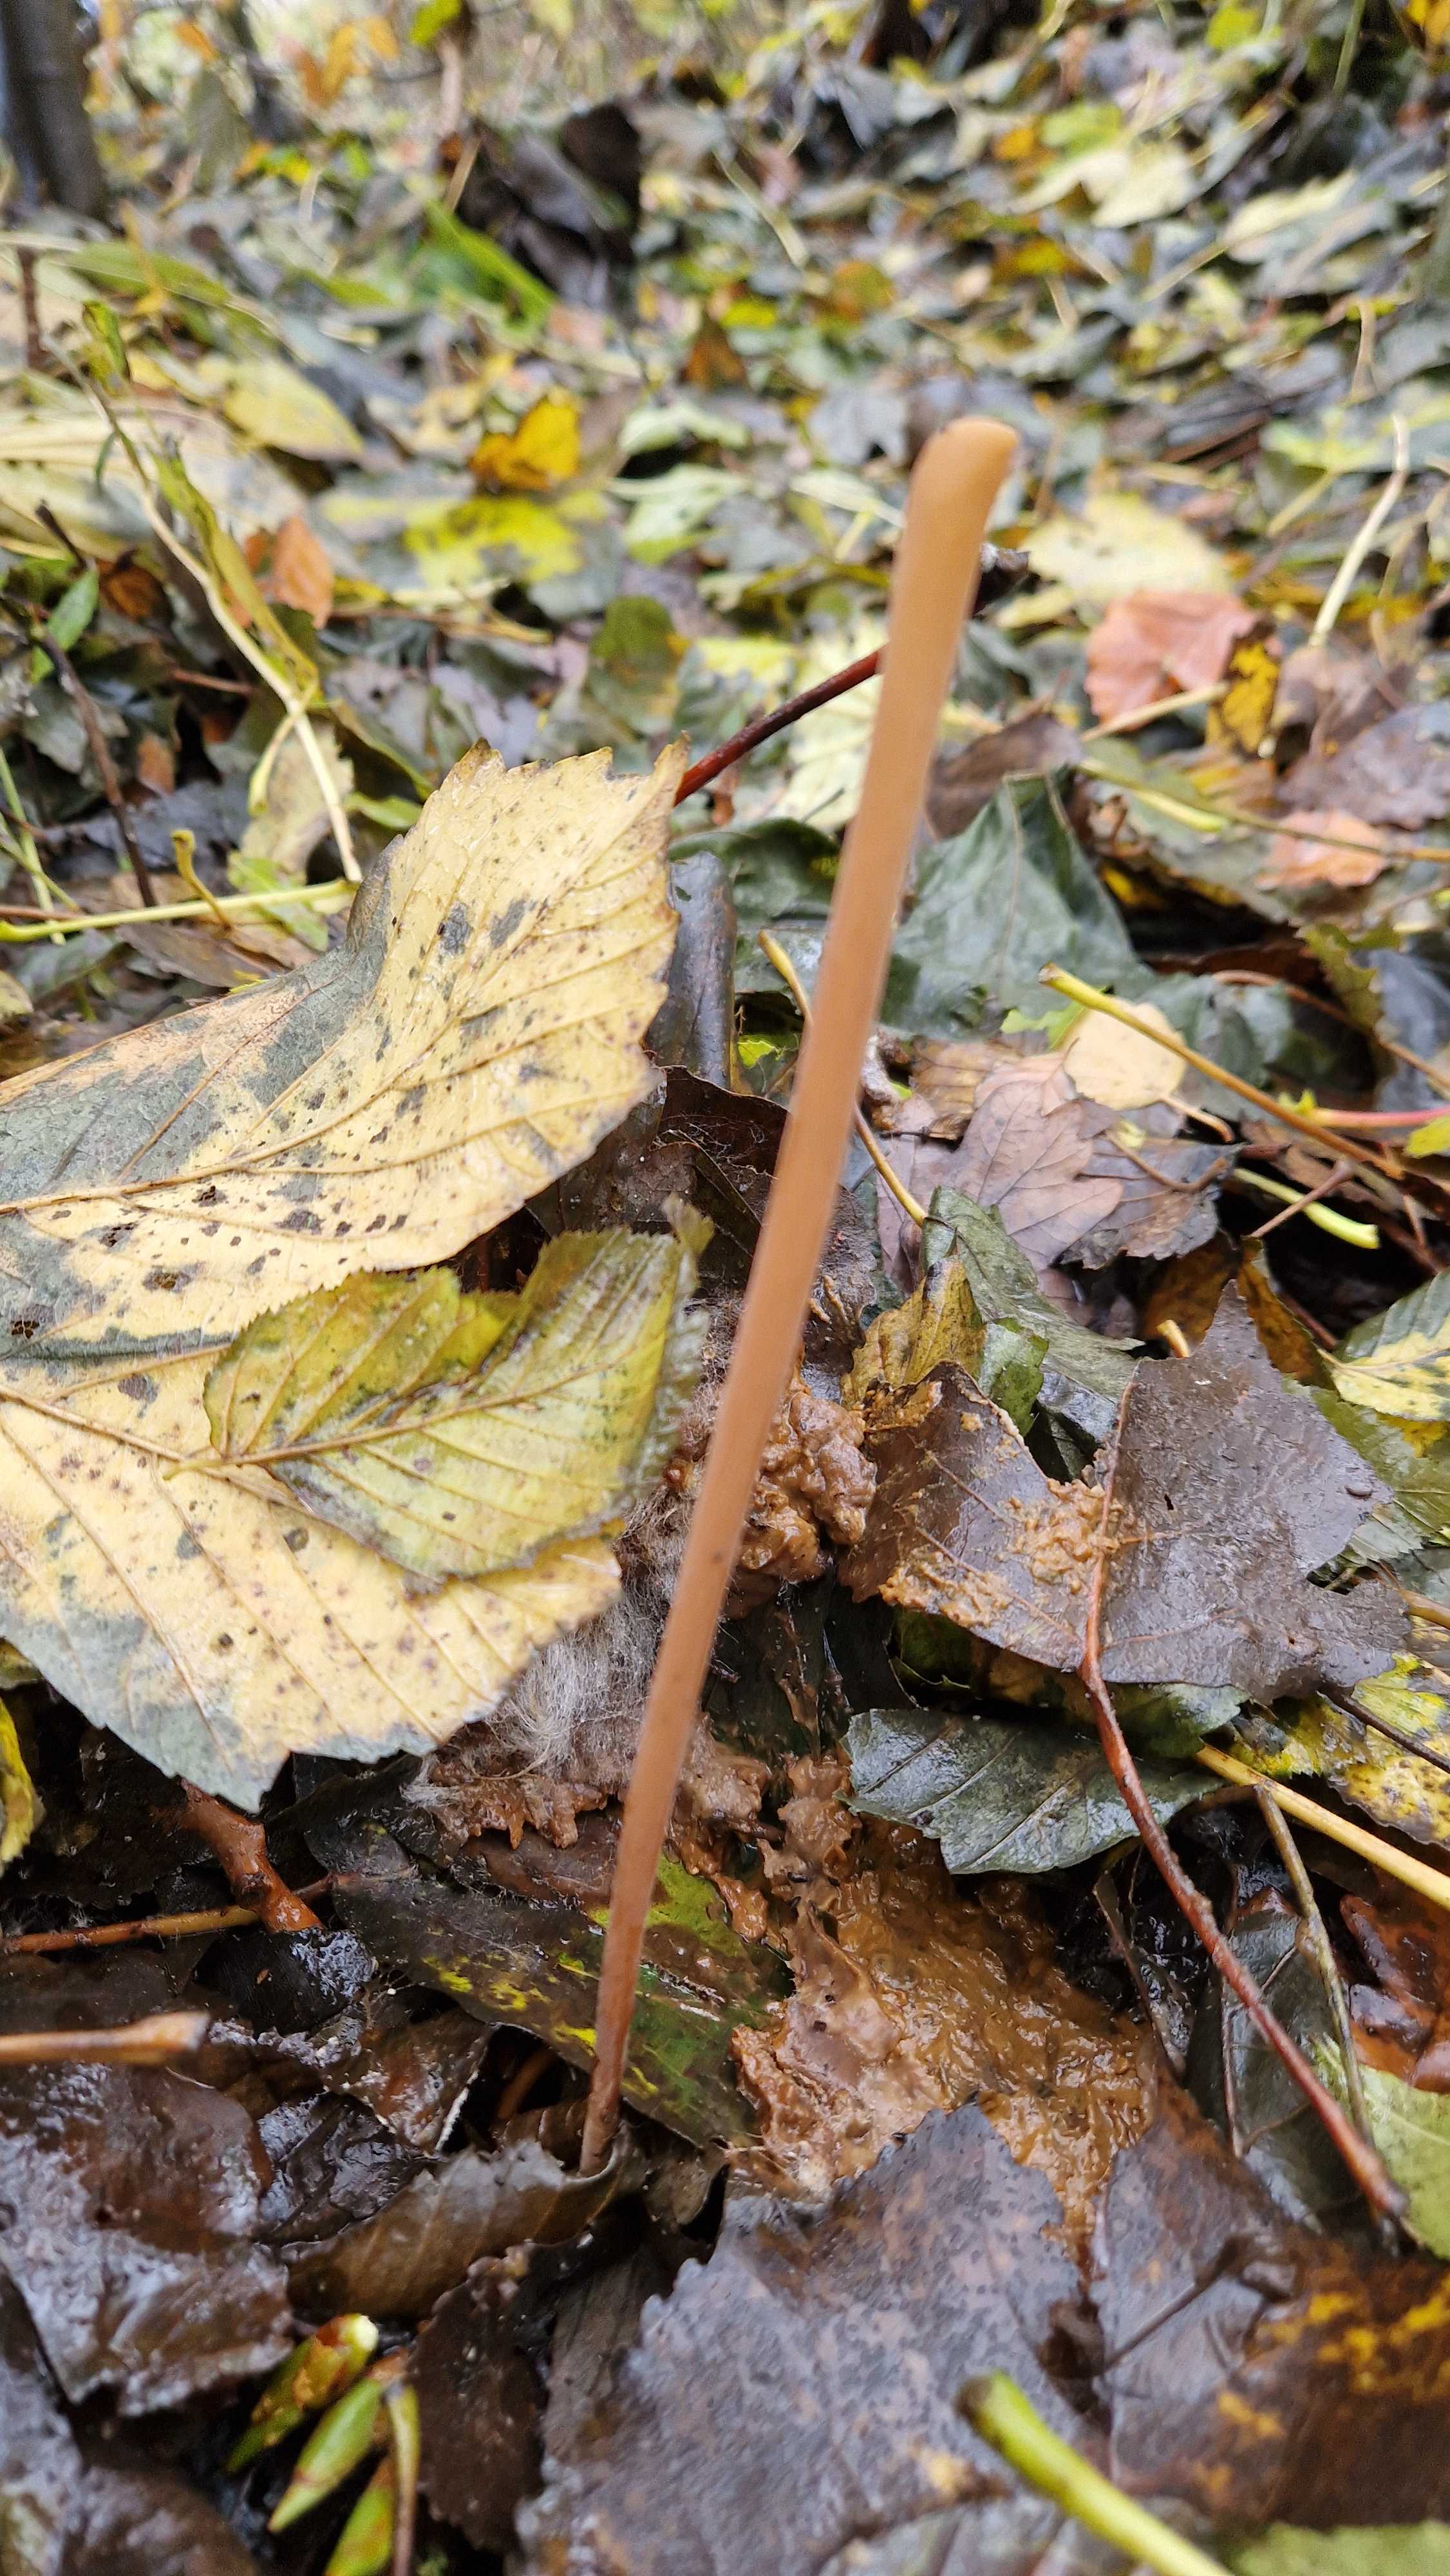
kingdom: Fungi
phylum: Basidiomycota
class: Agaricomycetes
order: Agaricales
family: Typhulaceae
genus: Typhula
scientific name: Typhula fistulosa
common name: pibet rørkølle
